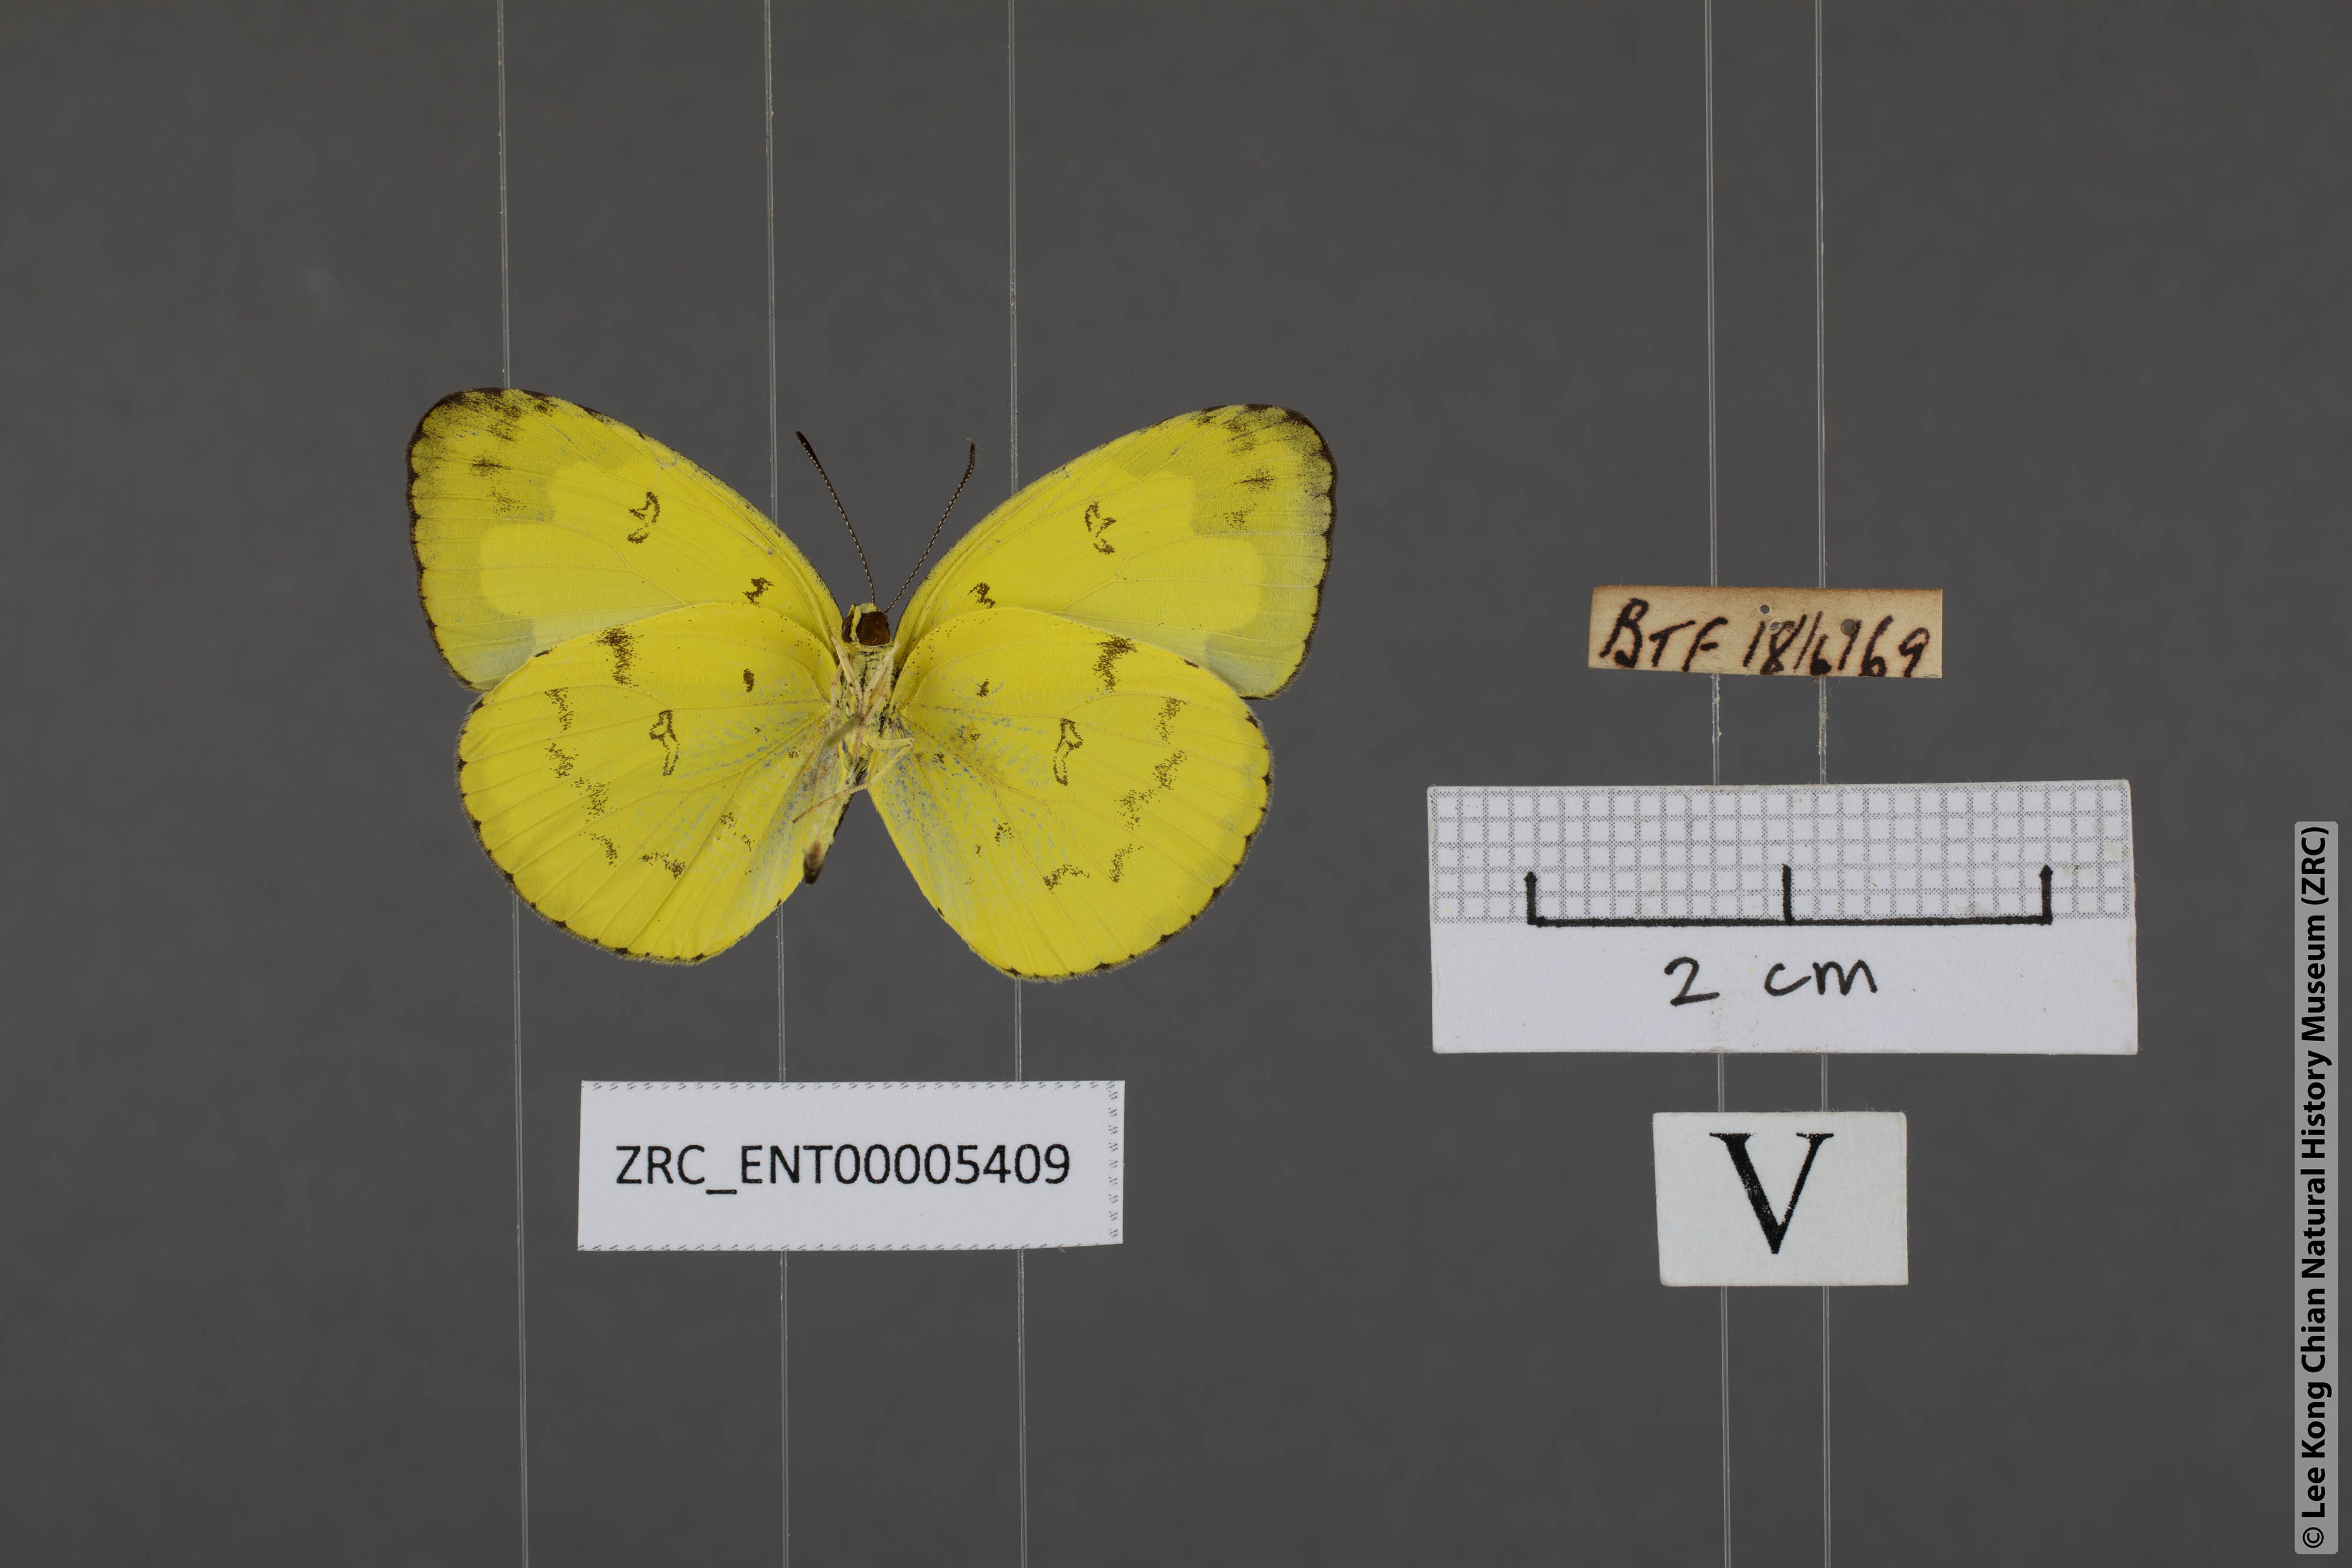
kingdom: Animalia
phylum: Arthropoda
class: Insecta
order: Lepidoptera
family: Pieridae
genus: Eurema
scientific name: Eurema andersoni
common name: One-spot yellow grass
